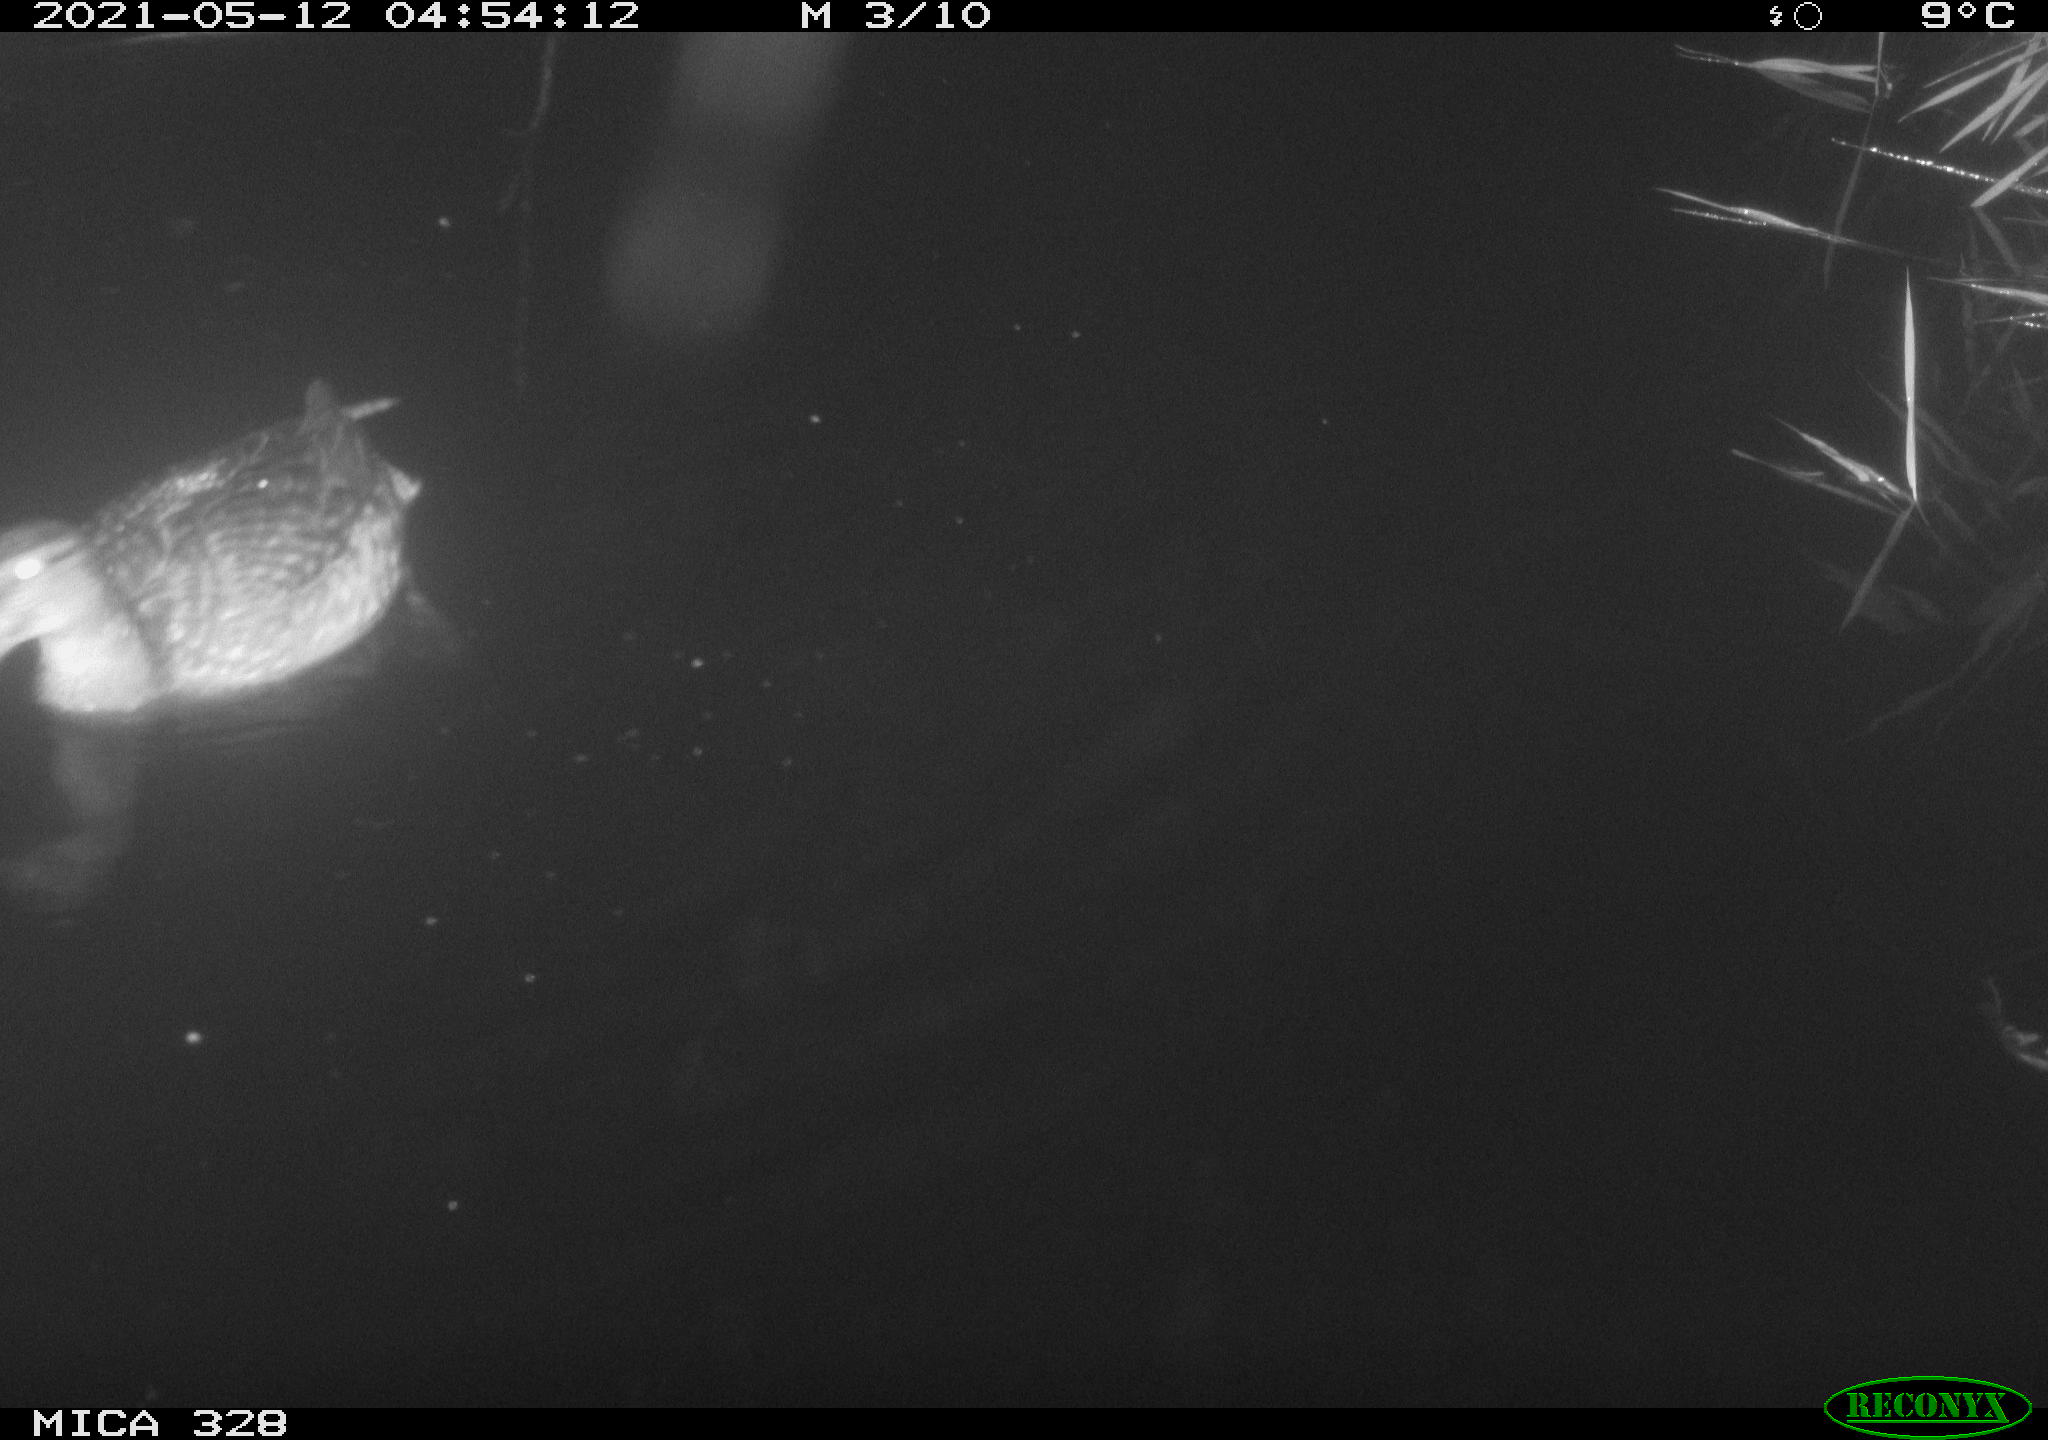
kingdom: Animalia
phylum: Chordata
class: Aves
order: Anseriformes
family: Anatidae
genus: Anas
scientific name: Anas platyrhynchos
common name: Mallard
